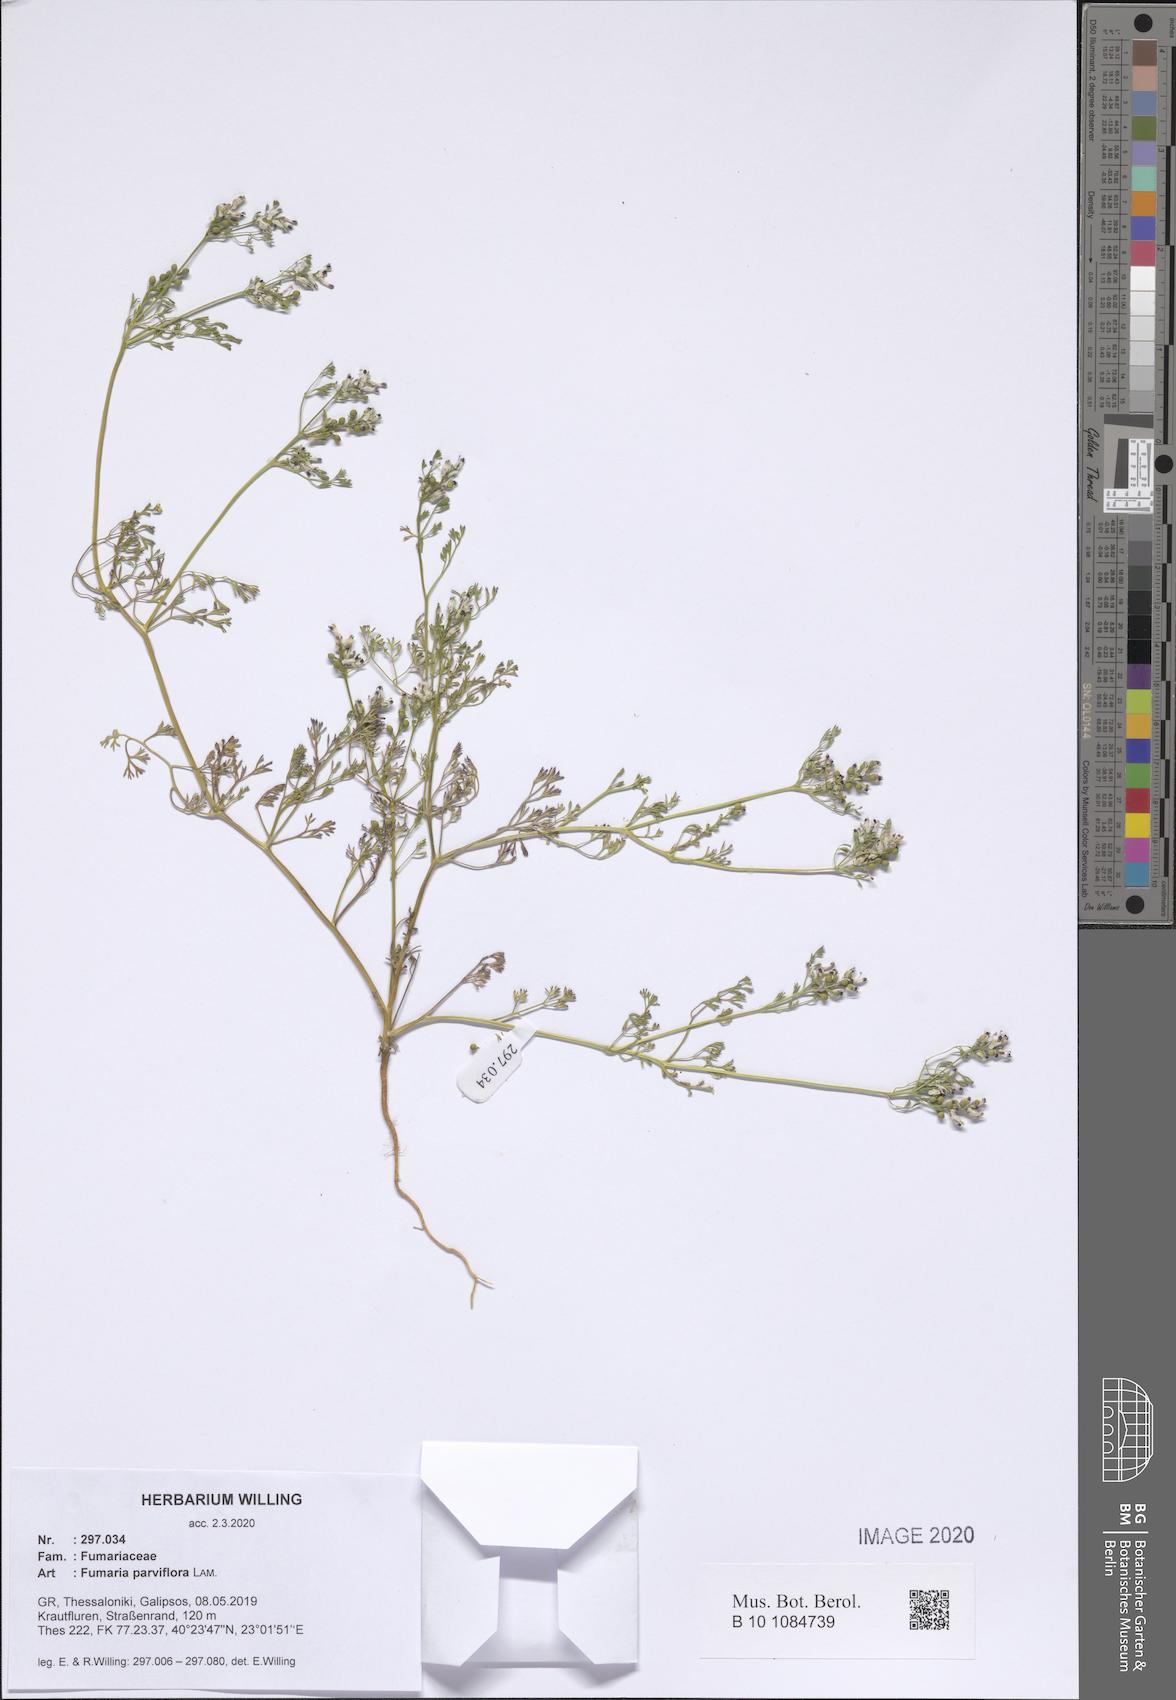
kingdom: Plantae
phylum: Tracheophyta
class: Magnoliopsida
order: Ranunculales
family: Papaveraceae
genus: Fumaria
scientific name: Fumaria parviflora
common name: Fine-leaved fumitory
